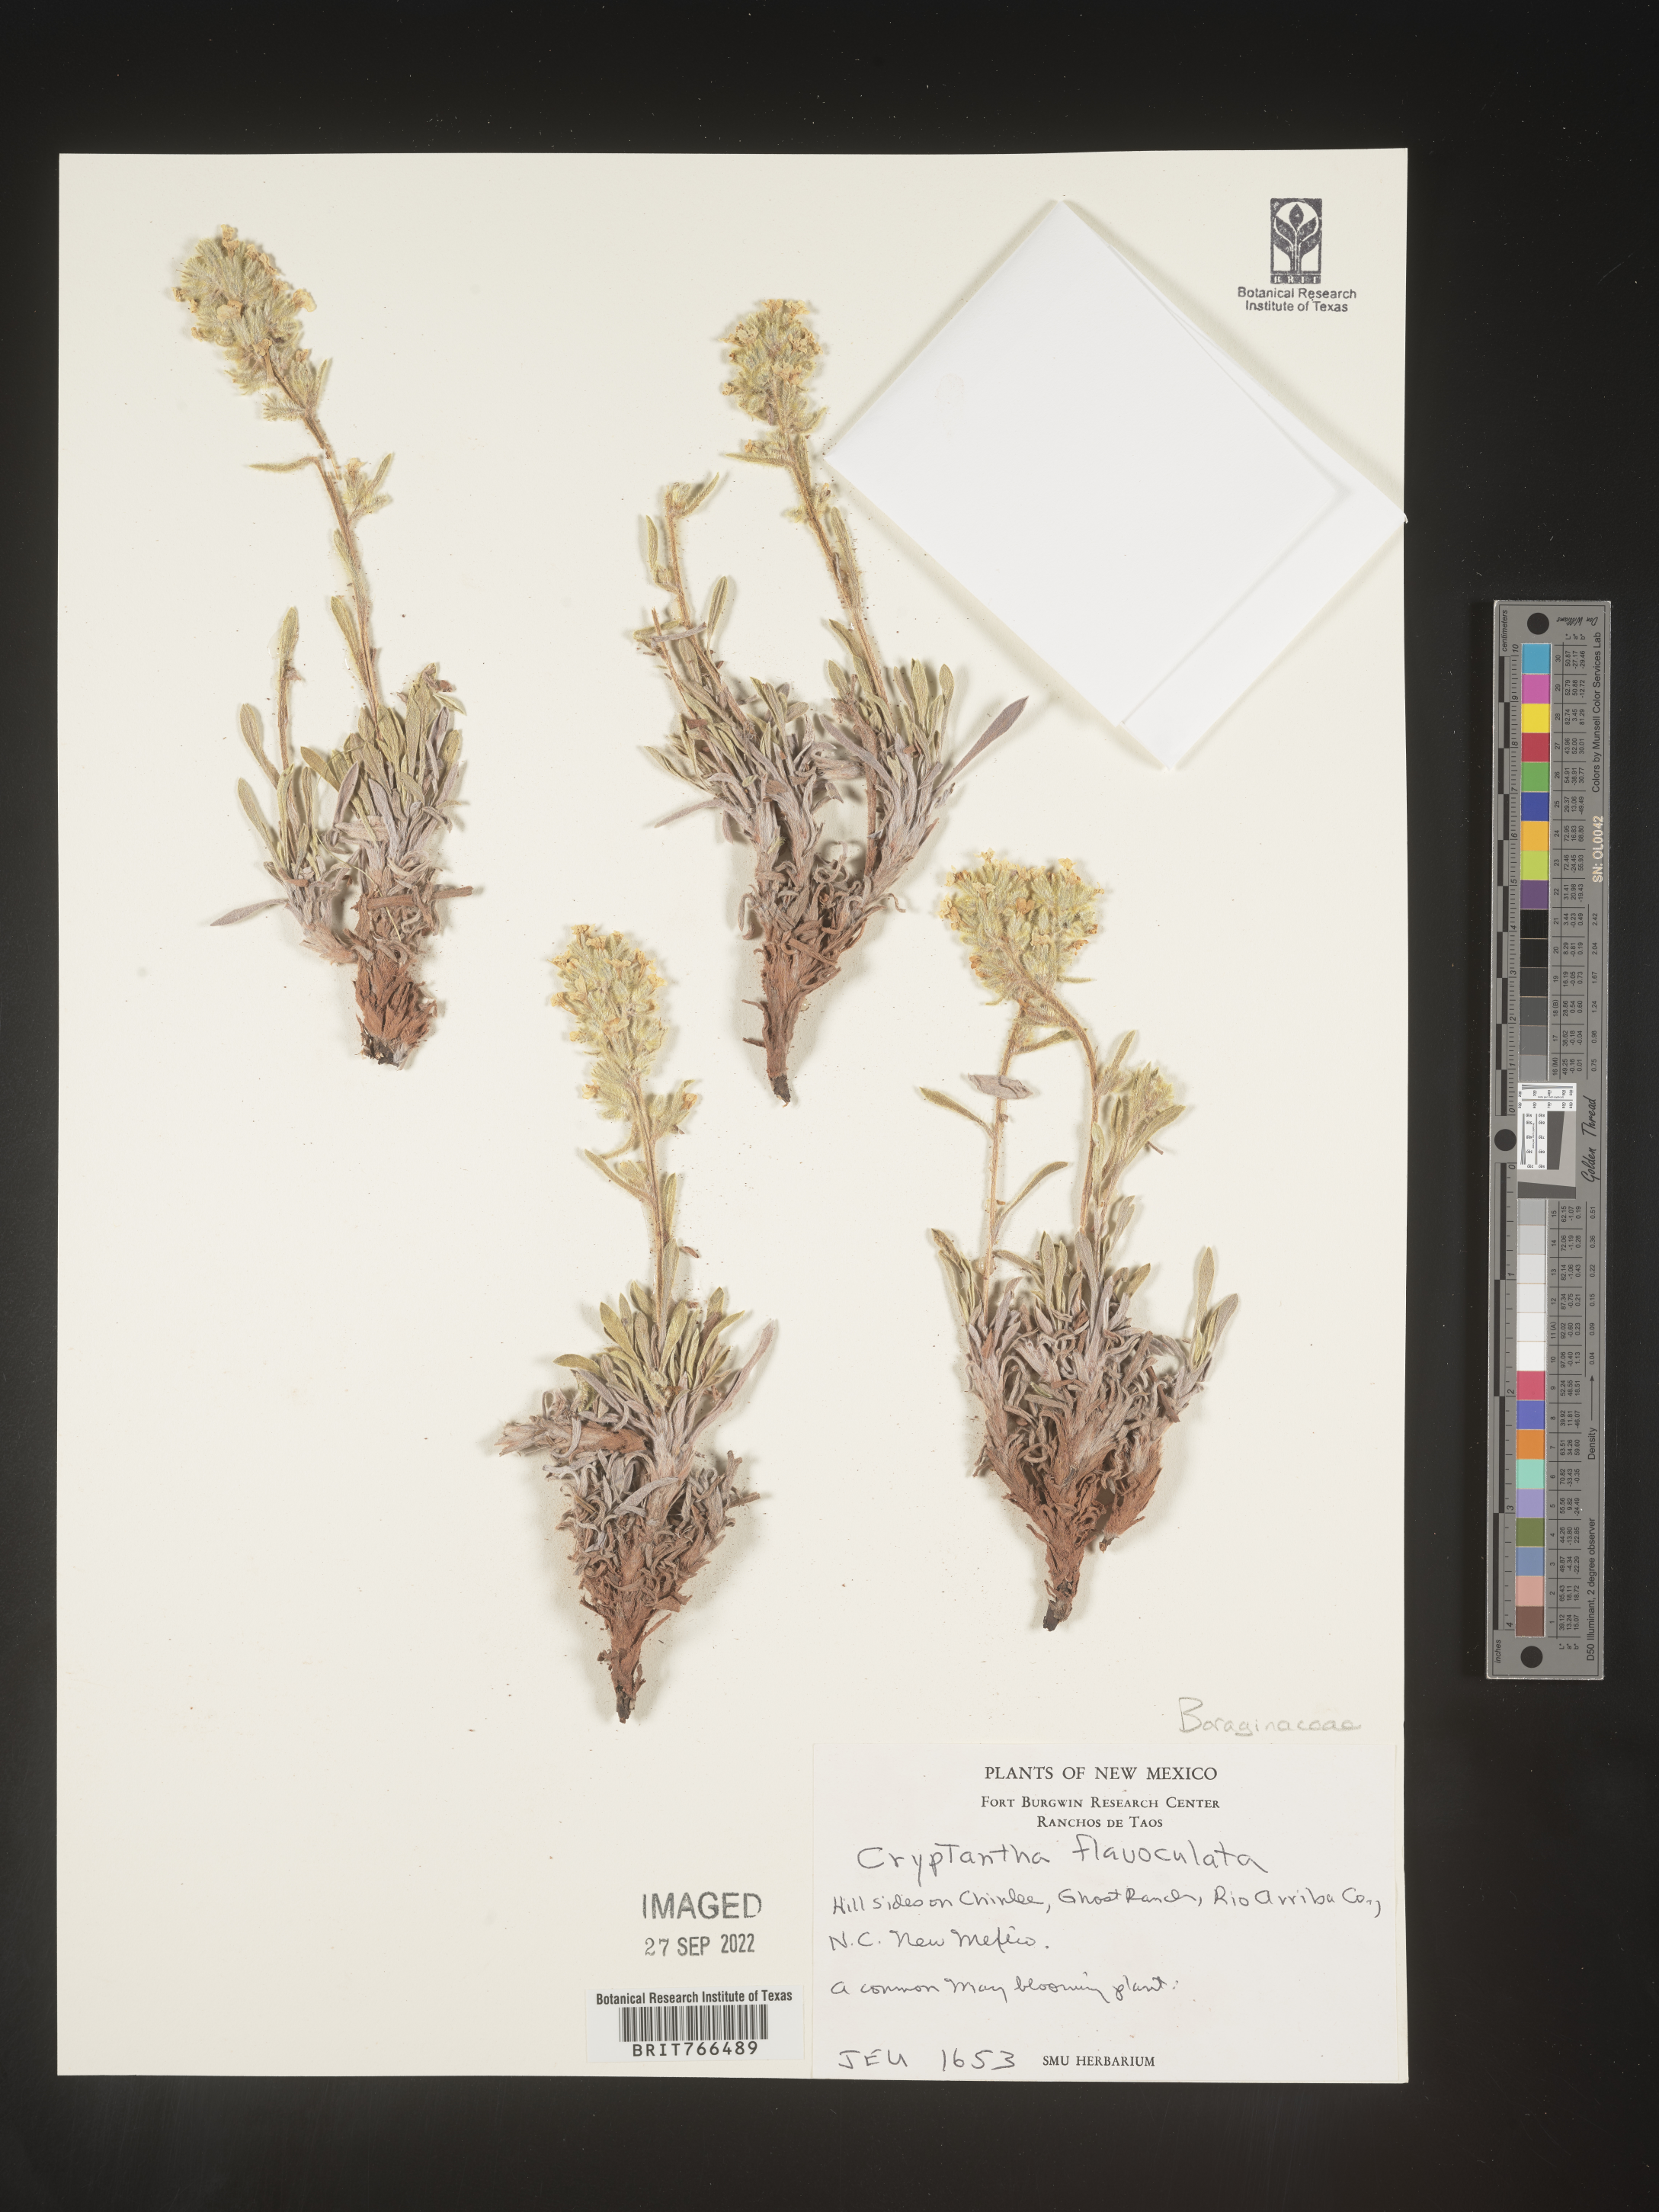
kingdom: Plantae
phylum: Tracheophyta
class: Magnoliopsida
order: Boraginales
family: Boraginaceae
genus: Oreocarya
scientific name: Oreocarya flavoculata
